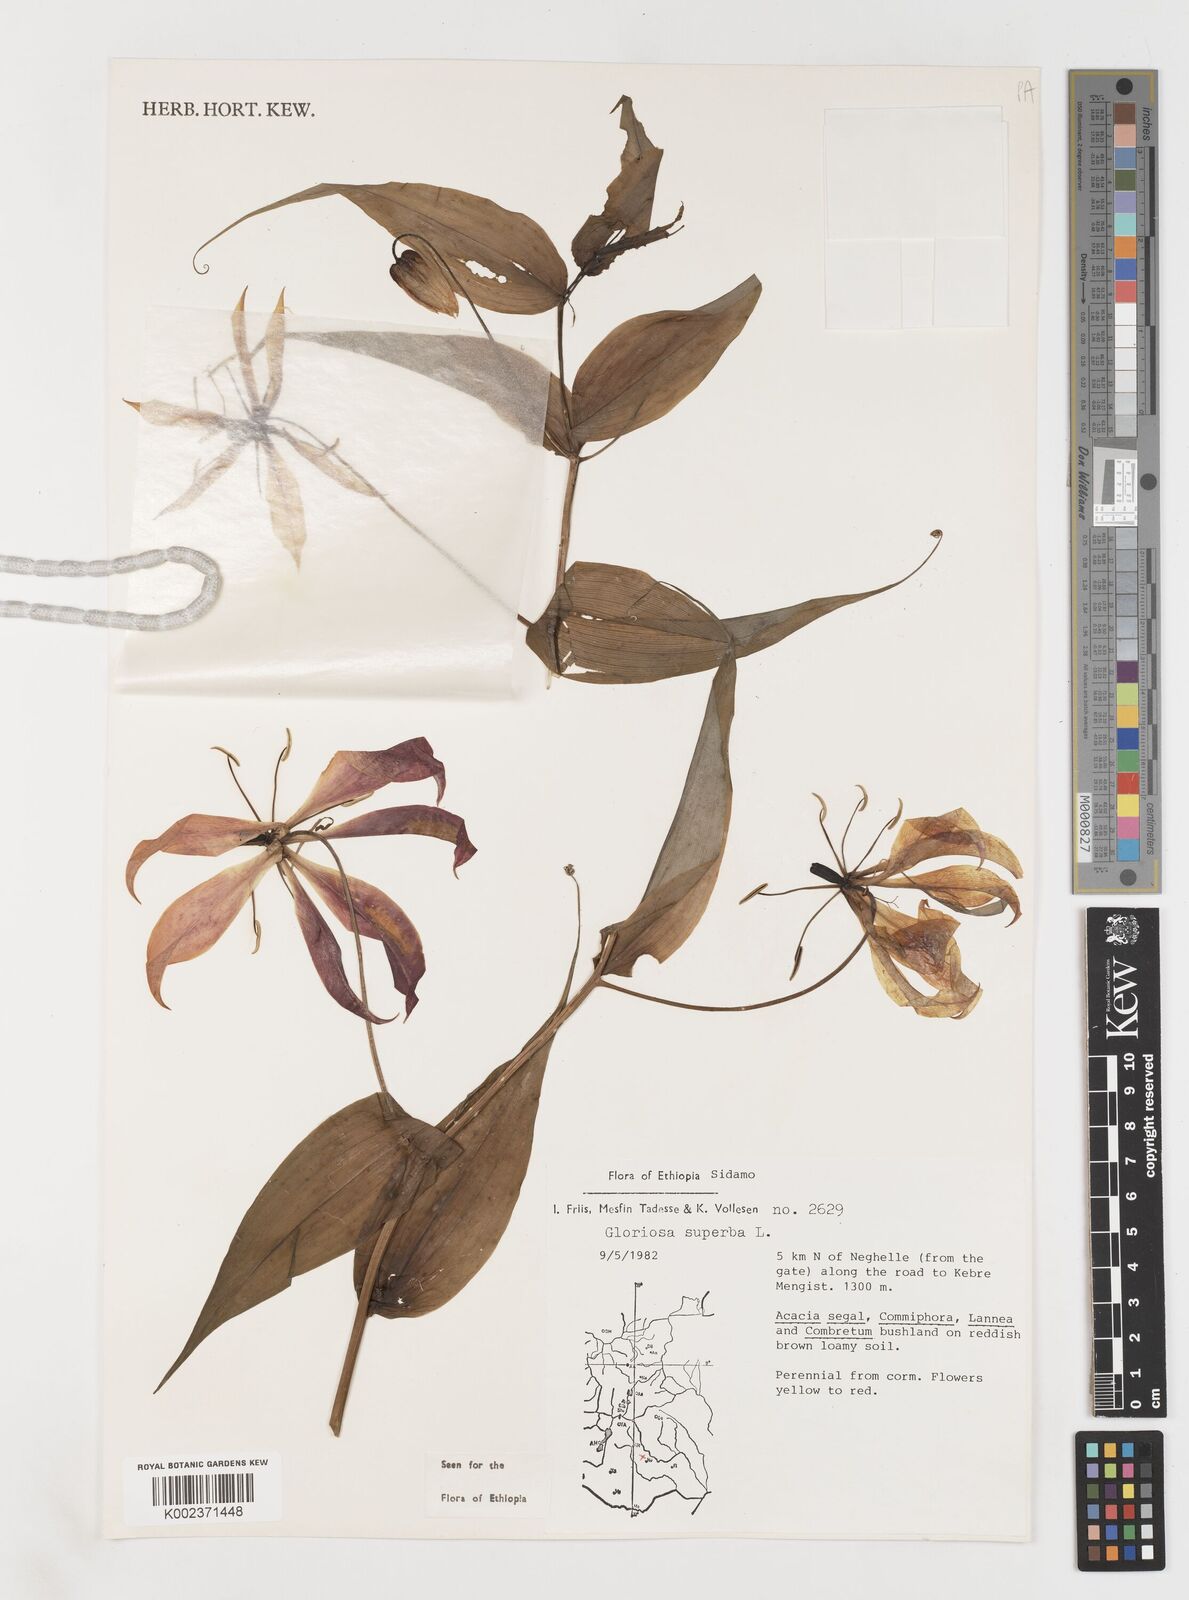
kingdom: Plantae
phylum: Tracheophyta
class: Liliopsida
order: Liliales
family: Colchicaceae
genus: Gloriosa
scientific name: Gloriosa simplex
